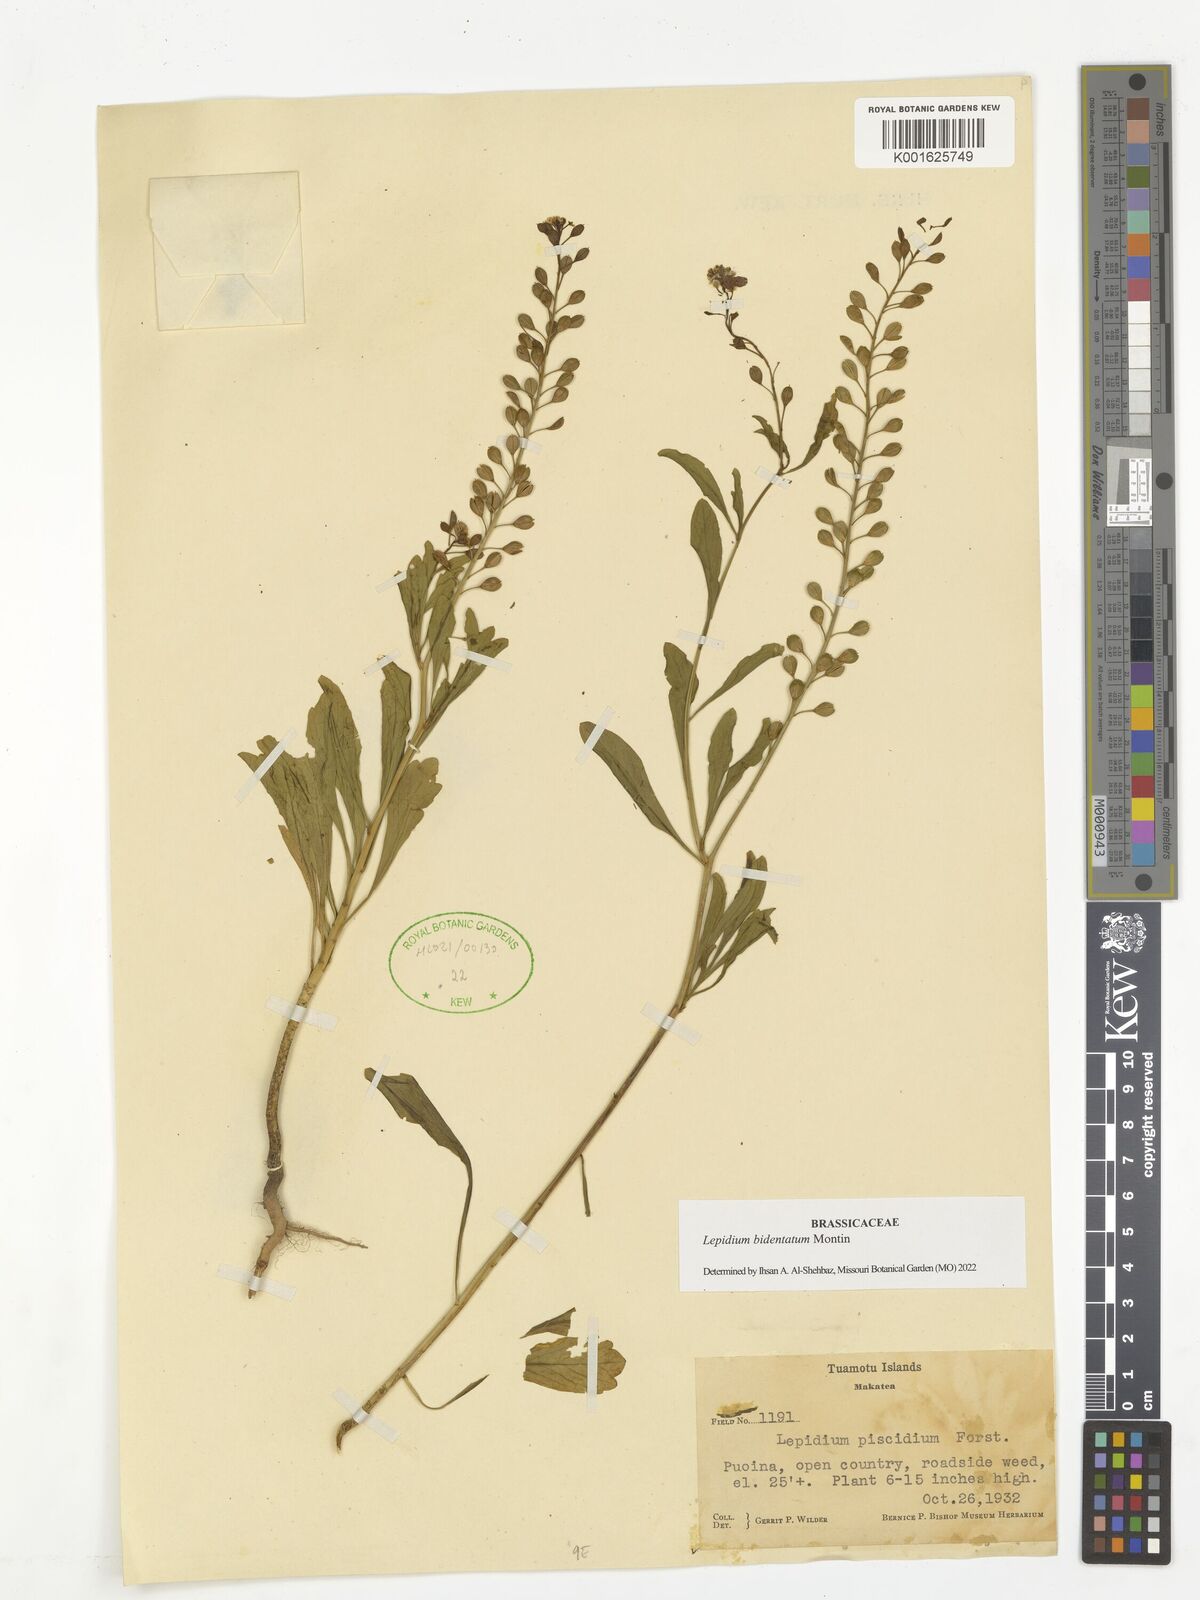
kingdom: Plantae
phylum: Tracheophyta
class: Magnoliopsida
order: Brassicales
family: Brassicaceae
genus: Lepidium
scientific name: Lepidium bidentatum
